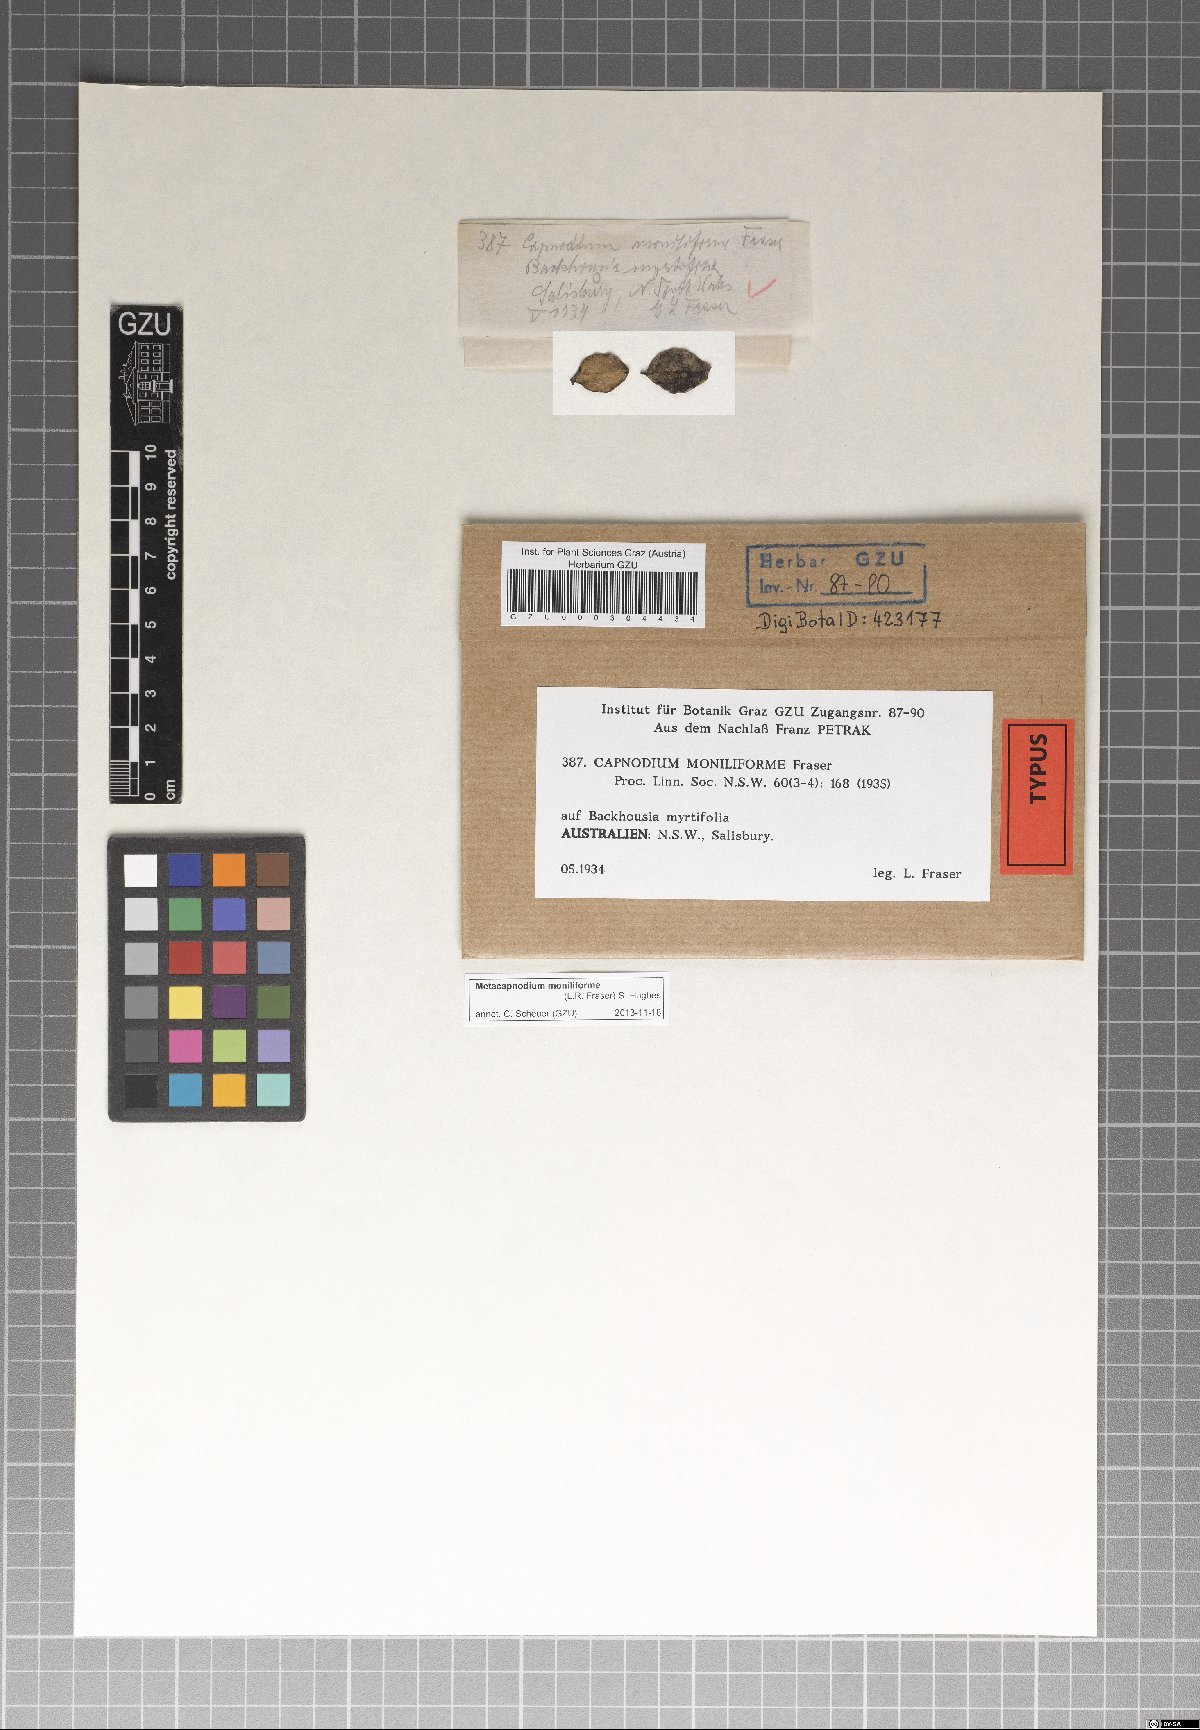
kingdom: Fungi
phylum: Ascomycota
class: Dothideomycetes
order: Capnodiales
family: Metacapnodiaceae
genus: Metacapnodium
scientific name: Metacapnodium moniliforme
